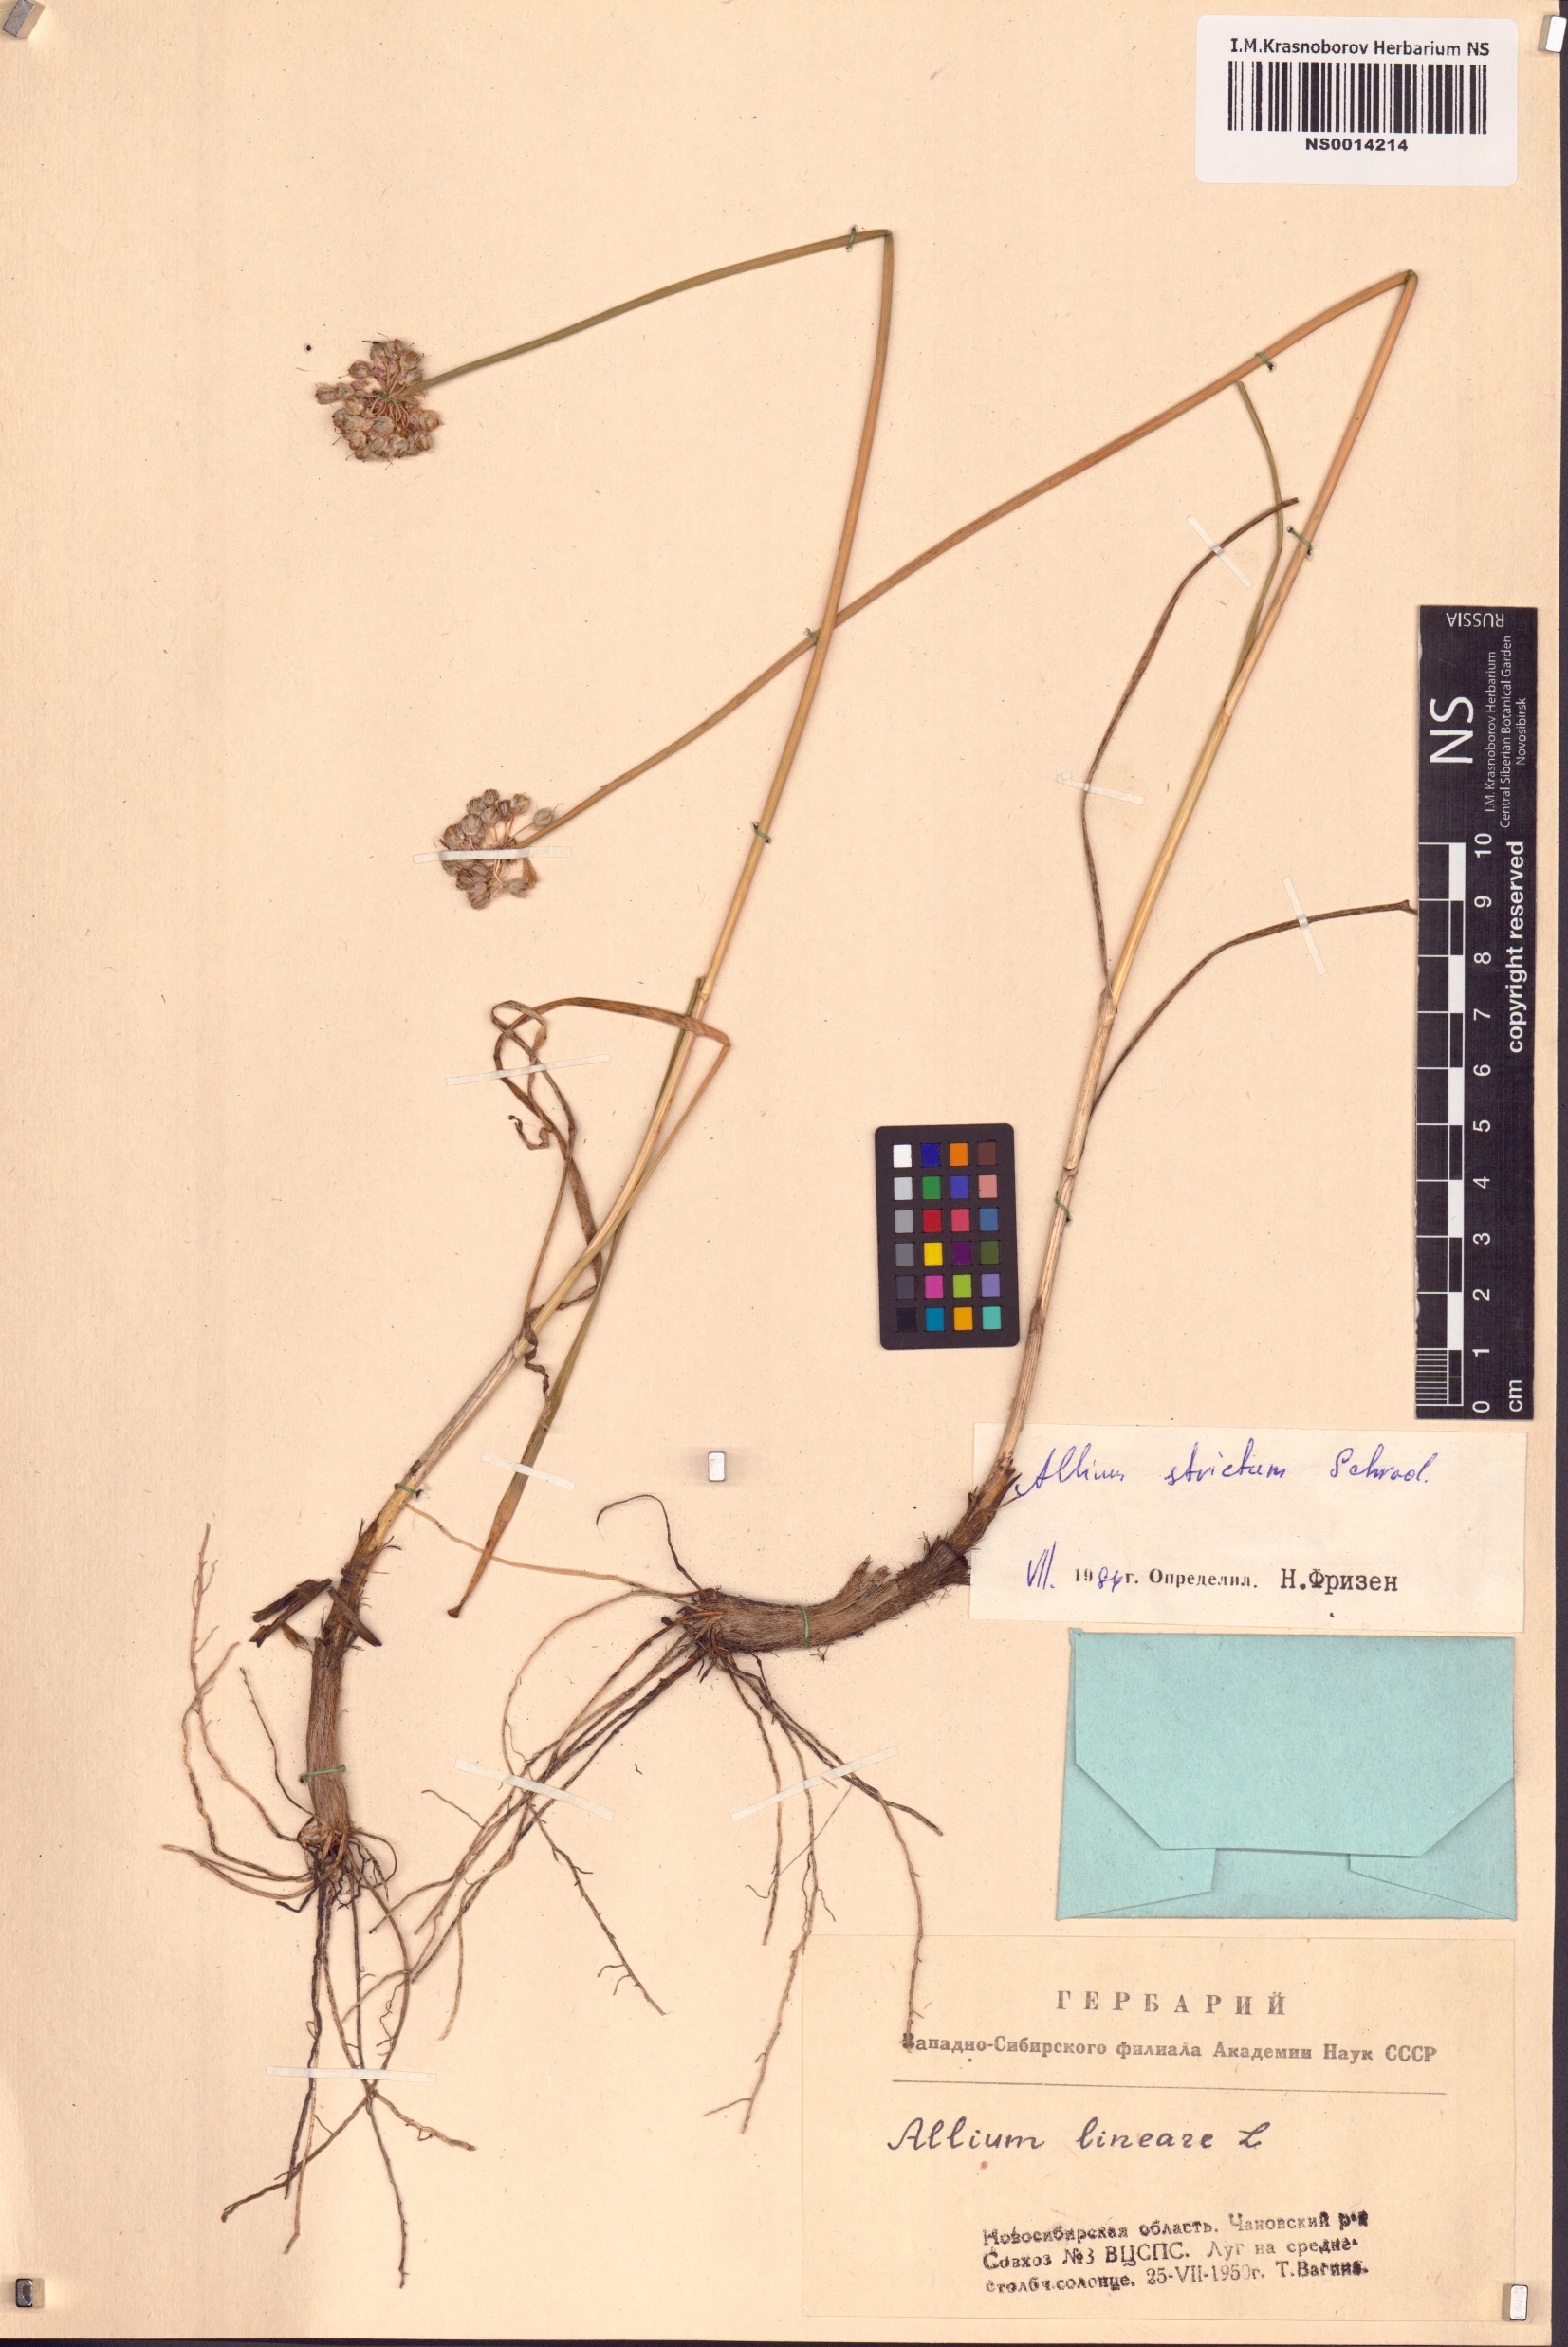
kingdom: Plantae
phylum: Tracheophyta
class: Liliopsida
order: Asparagales
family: Amaryllidaceae
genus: Allium
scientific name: Allium strictum
